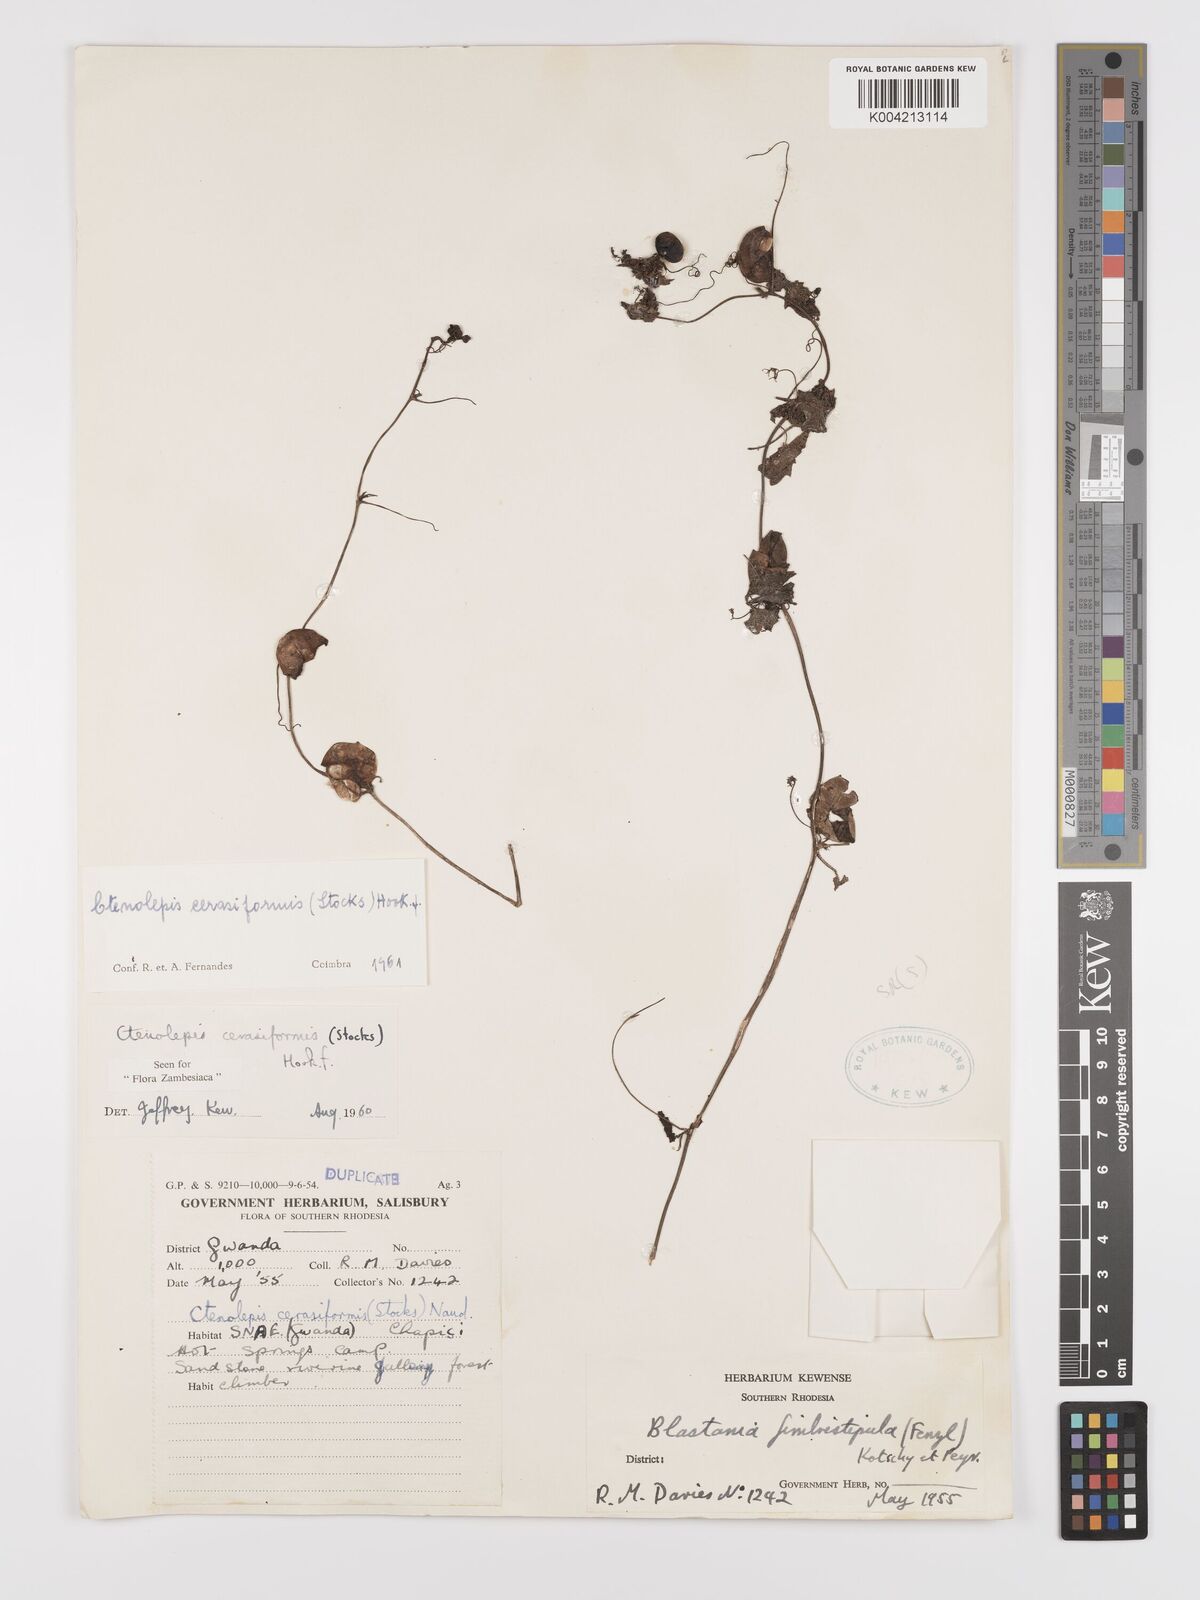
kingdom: Plantae
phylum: Tracheophyta
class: Magnoliopsida
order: Cucurbitales
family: Cucurbitaceae
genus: Blastania
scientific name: Blastania cerasiformis
